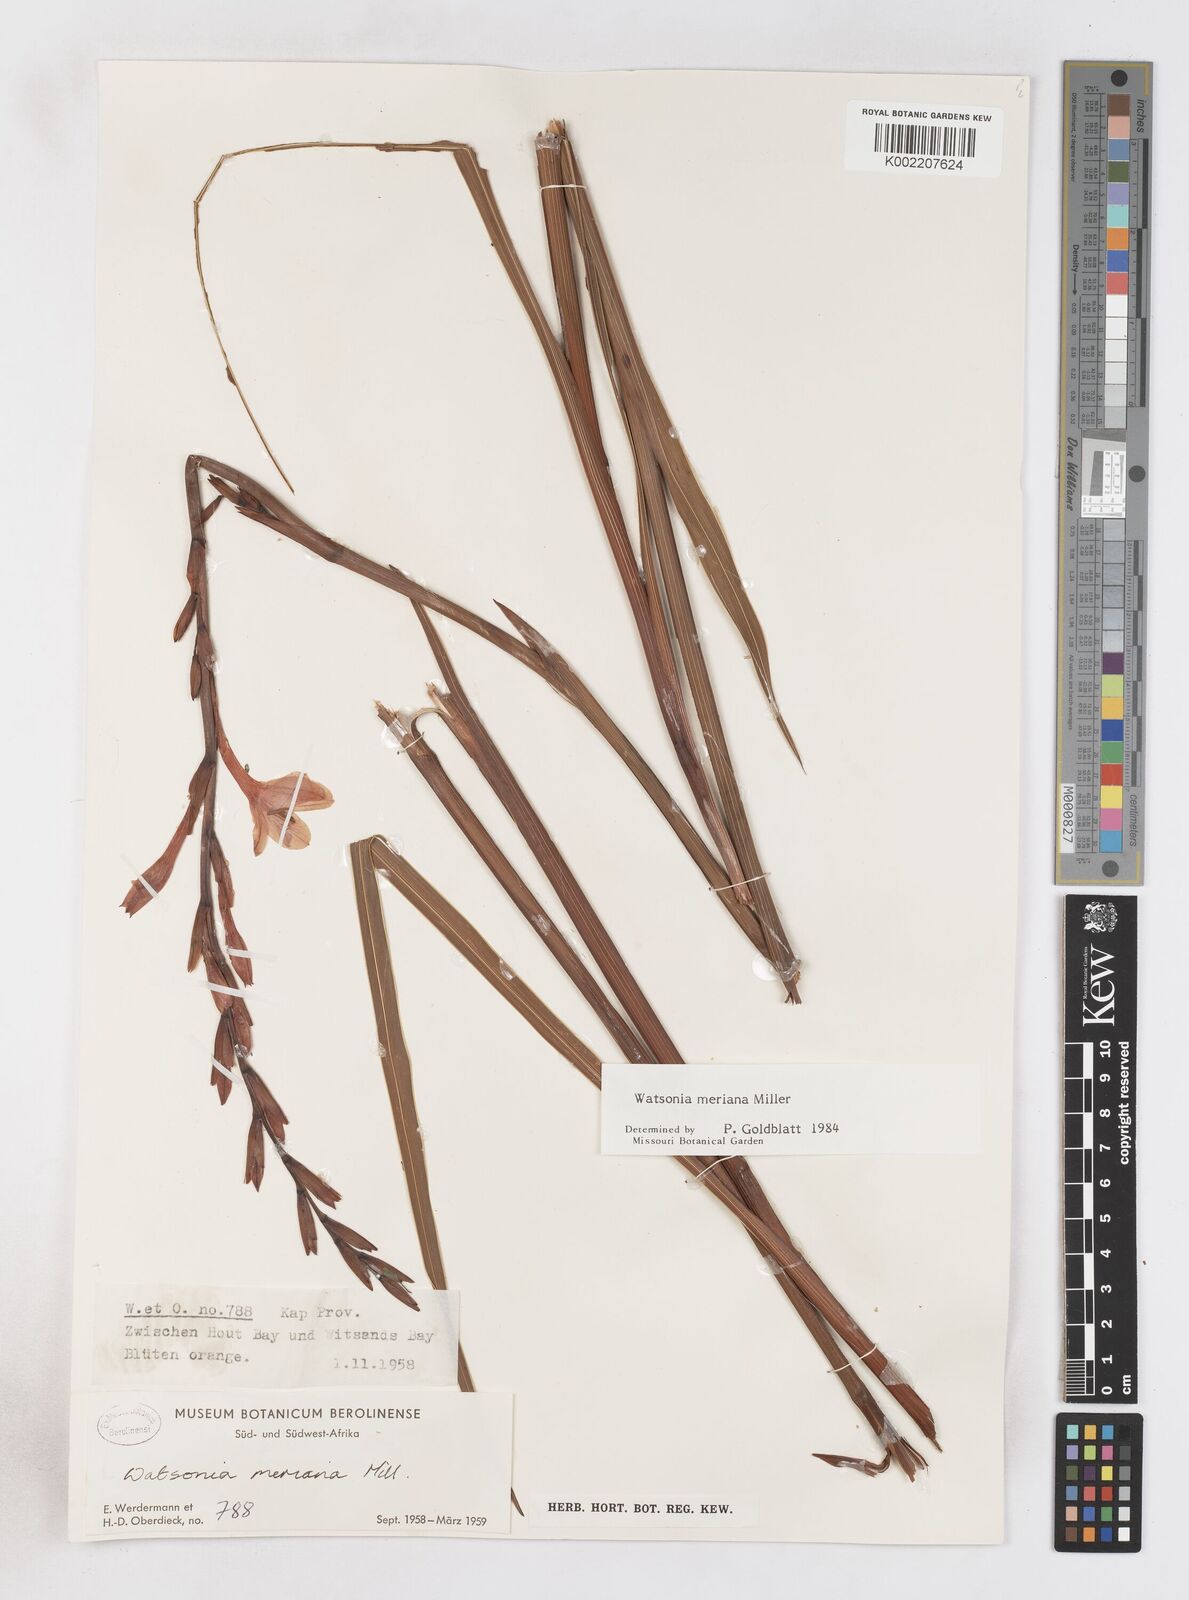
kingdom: Plantae
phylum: Tracheophyta
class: Liliopsida
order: Asparagales
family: Iridaceae
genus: Watsonia
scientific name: Watsonia meriana
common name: Bulbil bugle-lily
